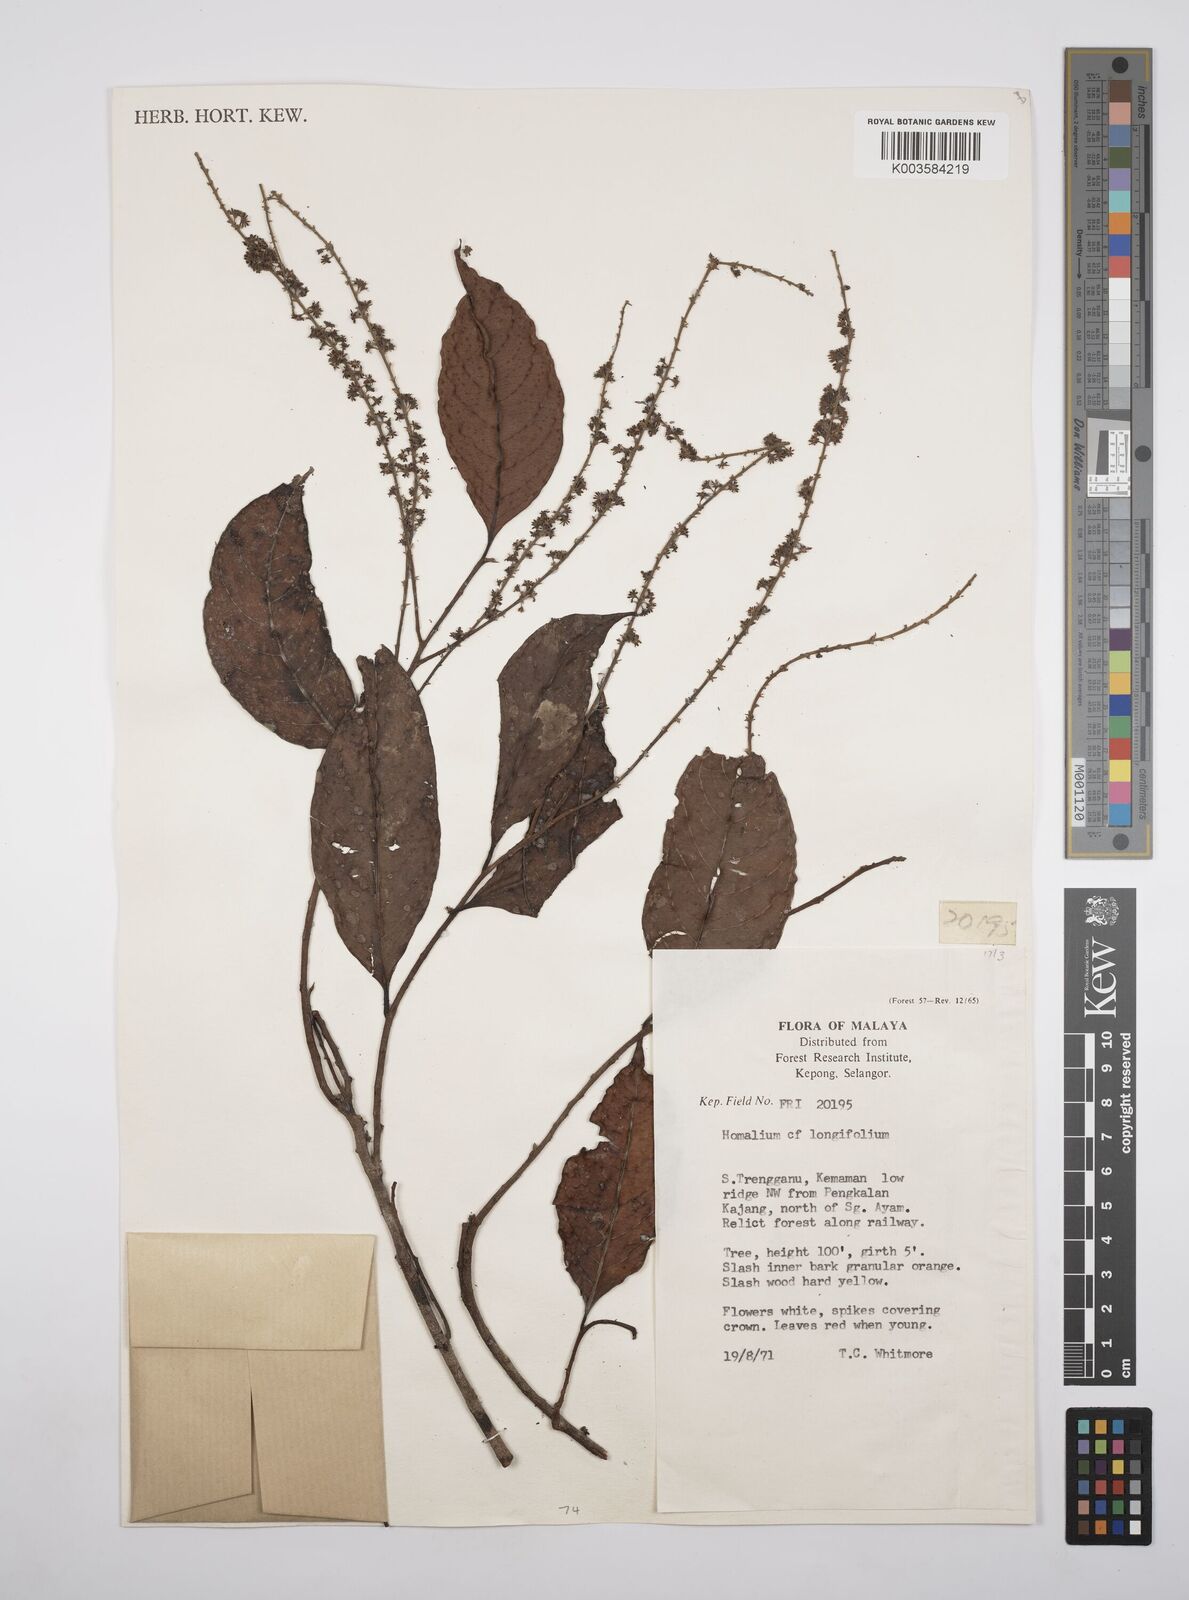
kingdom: Plantae
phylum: Tracheophyta
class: Magnoliopsida
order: Malpighiales
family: Salicaceae
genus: Homalium
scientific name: Homalium longifolium
